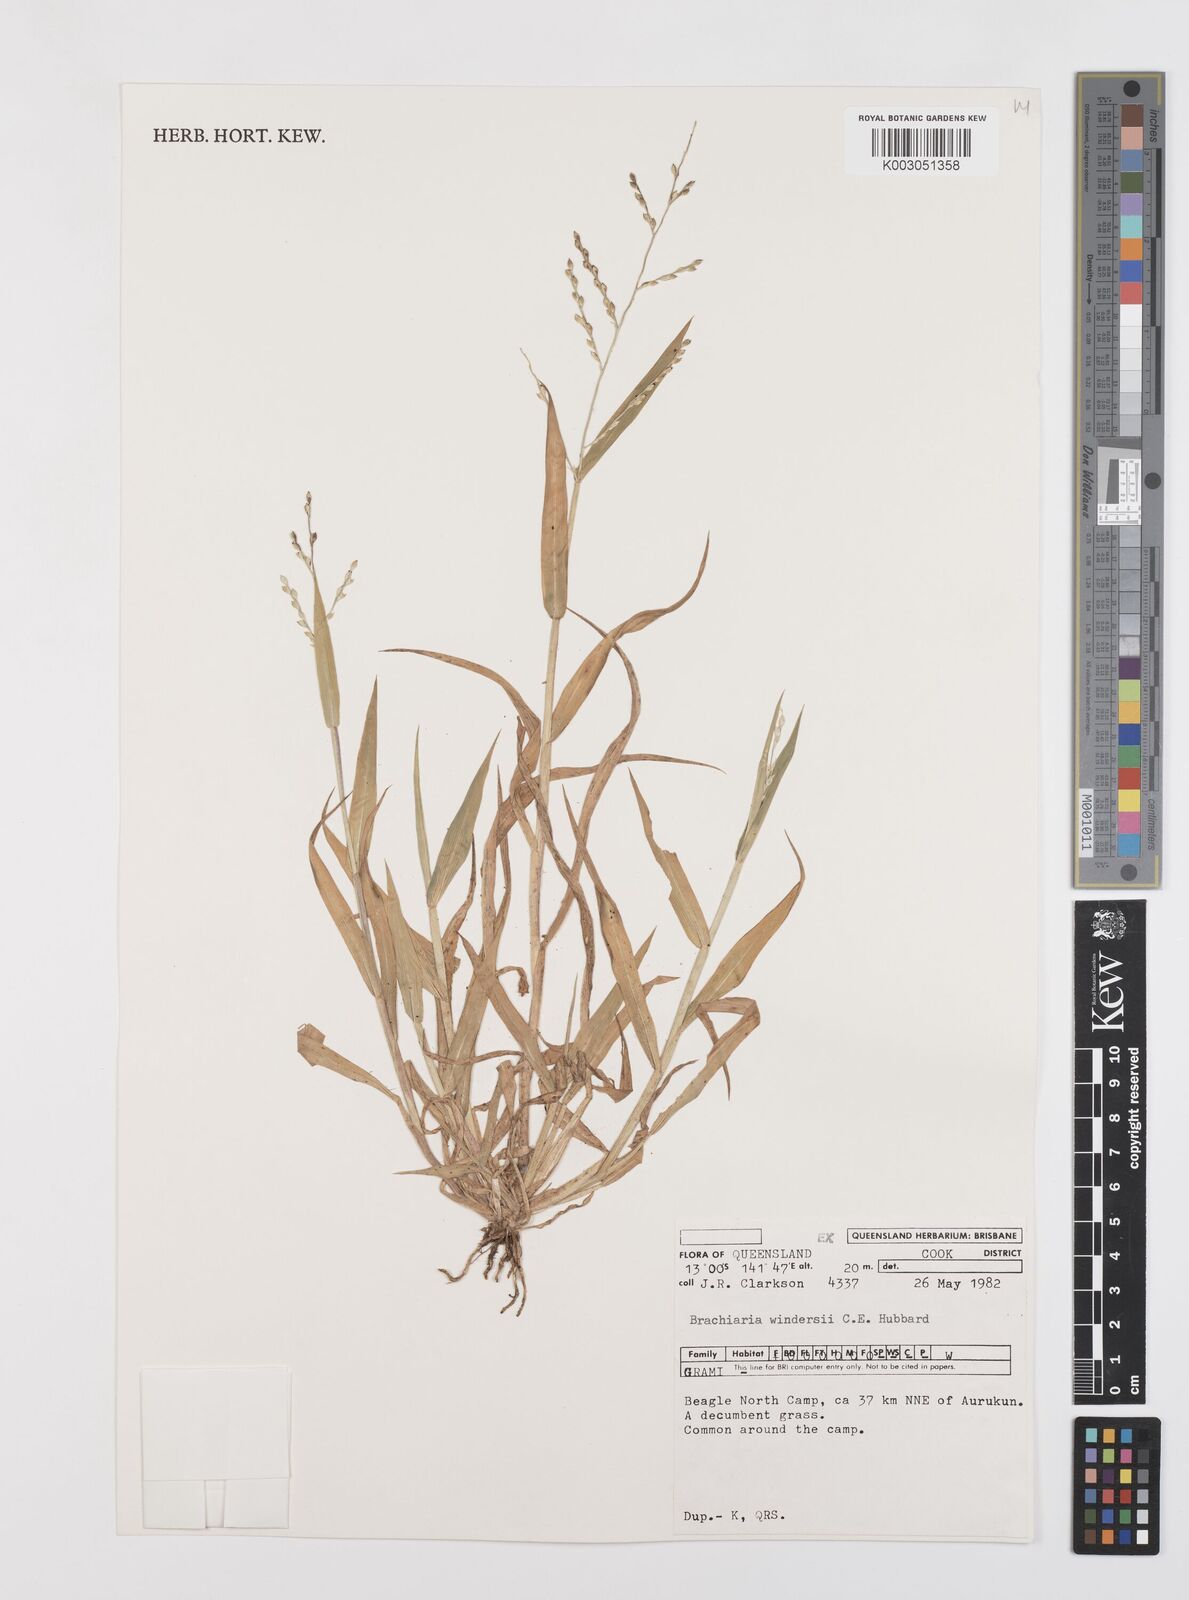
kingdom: Plantae
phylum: Tracheophyta
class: Liliopsida
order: Poales
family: Poaceae
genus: Urochloa
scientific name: Urochloa whiteana
